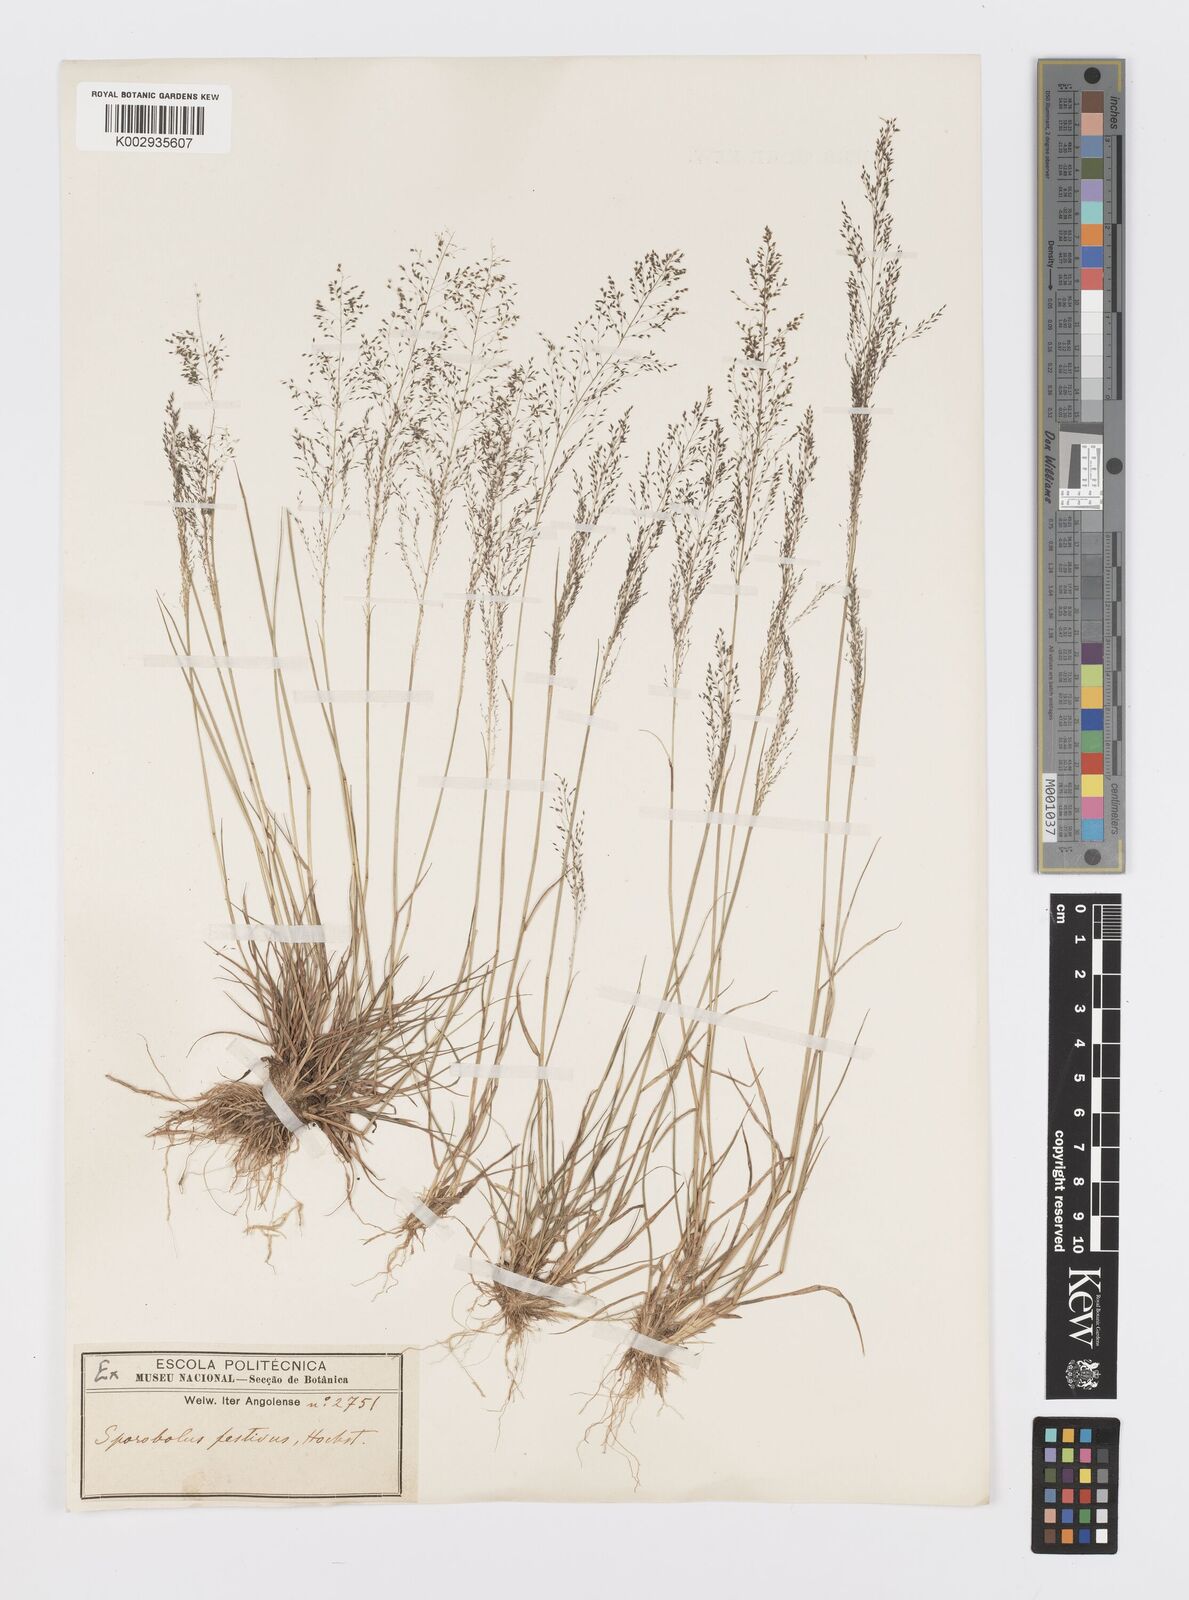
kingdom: Plantae
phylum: Tracheophyta
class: Liliopsida
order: Poales
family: Poaceae
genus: Sporobolus
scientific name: Sporobolus festivus
